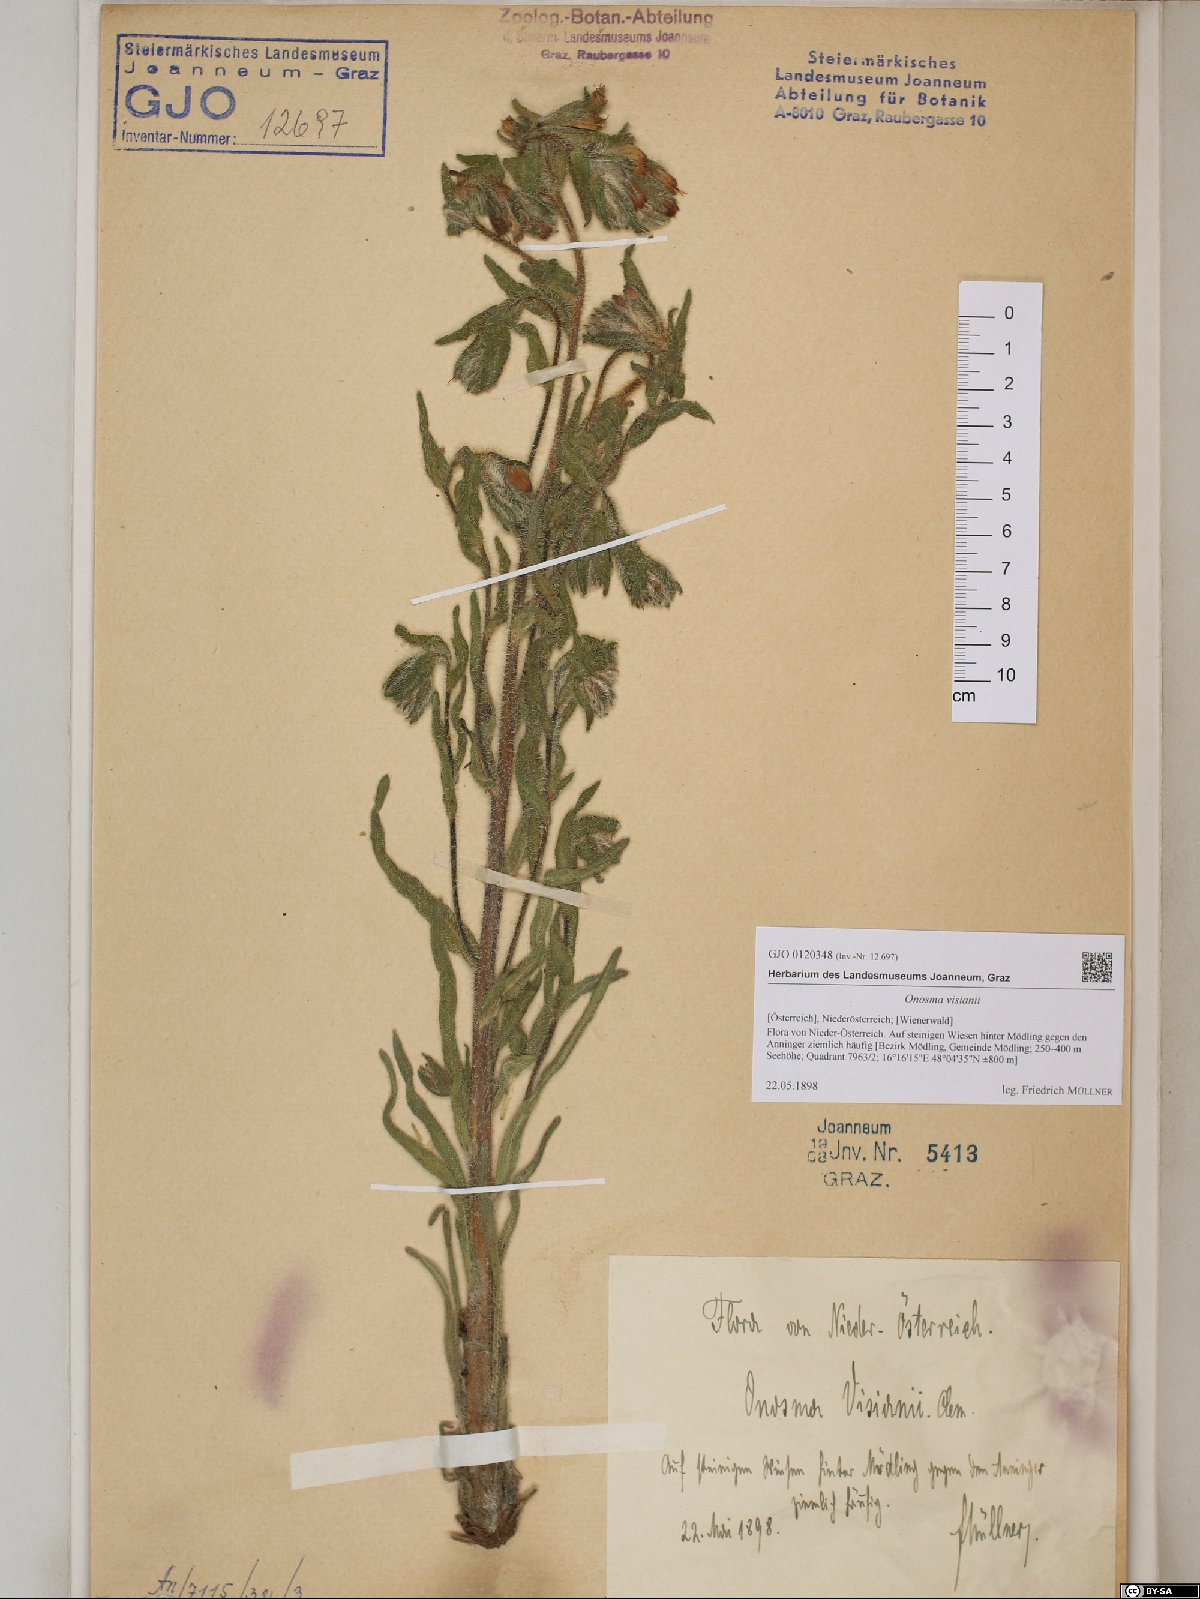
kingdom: Plantae
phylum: Tracheophyta
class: Magnoliopsida
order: Boraginales
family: Boraginaceae
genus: Onosma
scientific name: Onosma visianii
